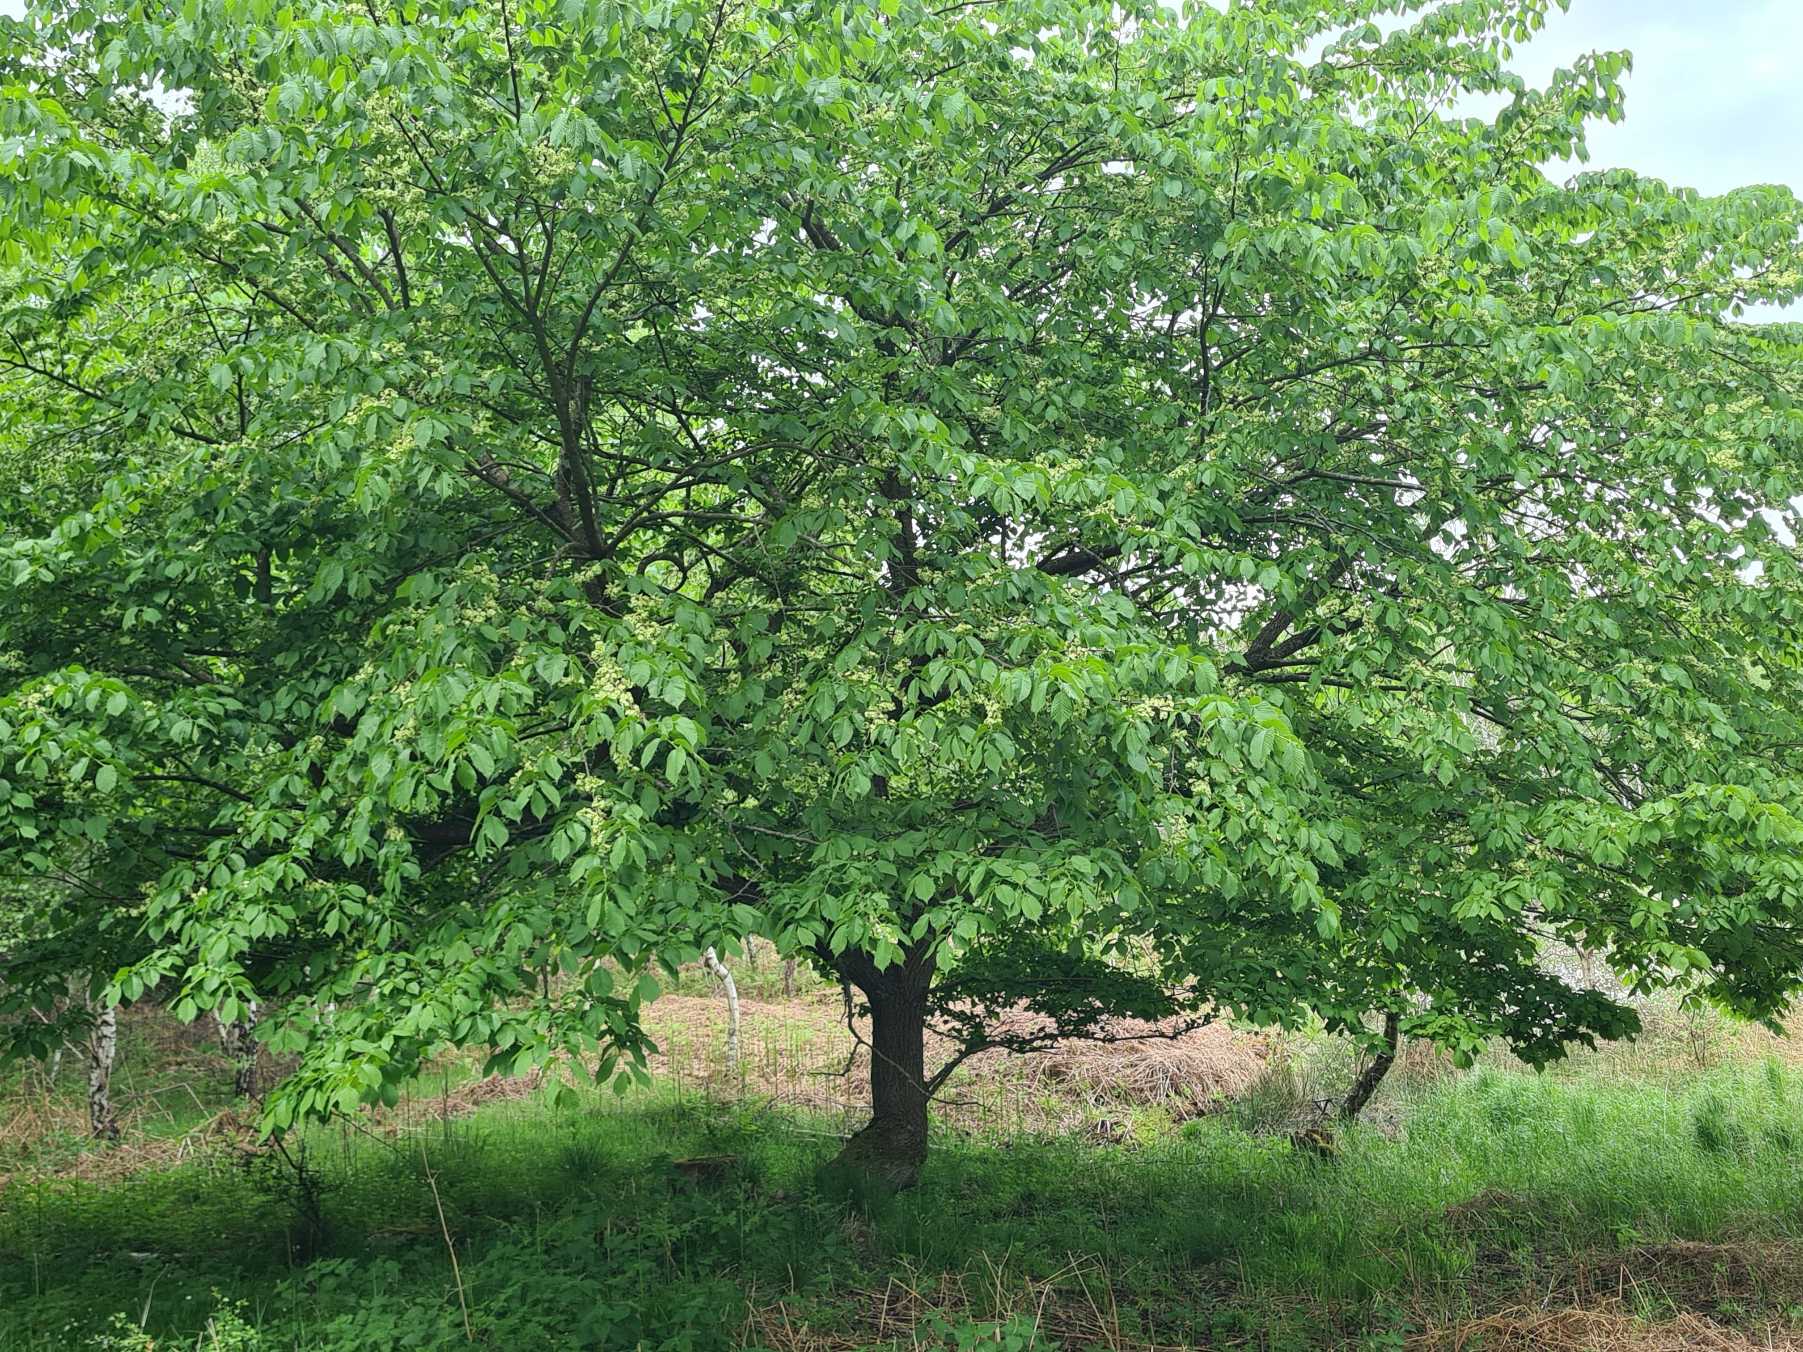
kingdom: Plantae
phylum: Tracheophyta
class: Magnoliopsida
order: Rosales
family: Ulmaceae
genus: Ulmus
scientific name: Ulmus glabra
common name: Skov-elm/storbladet elm
